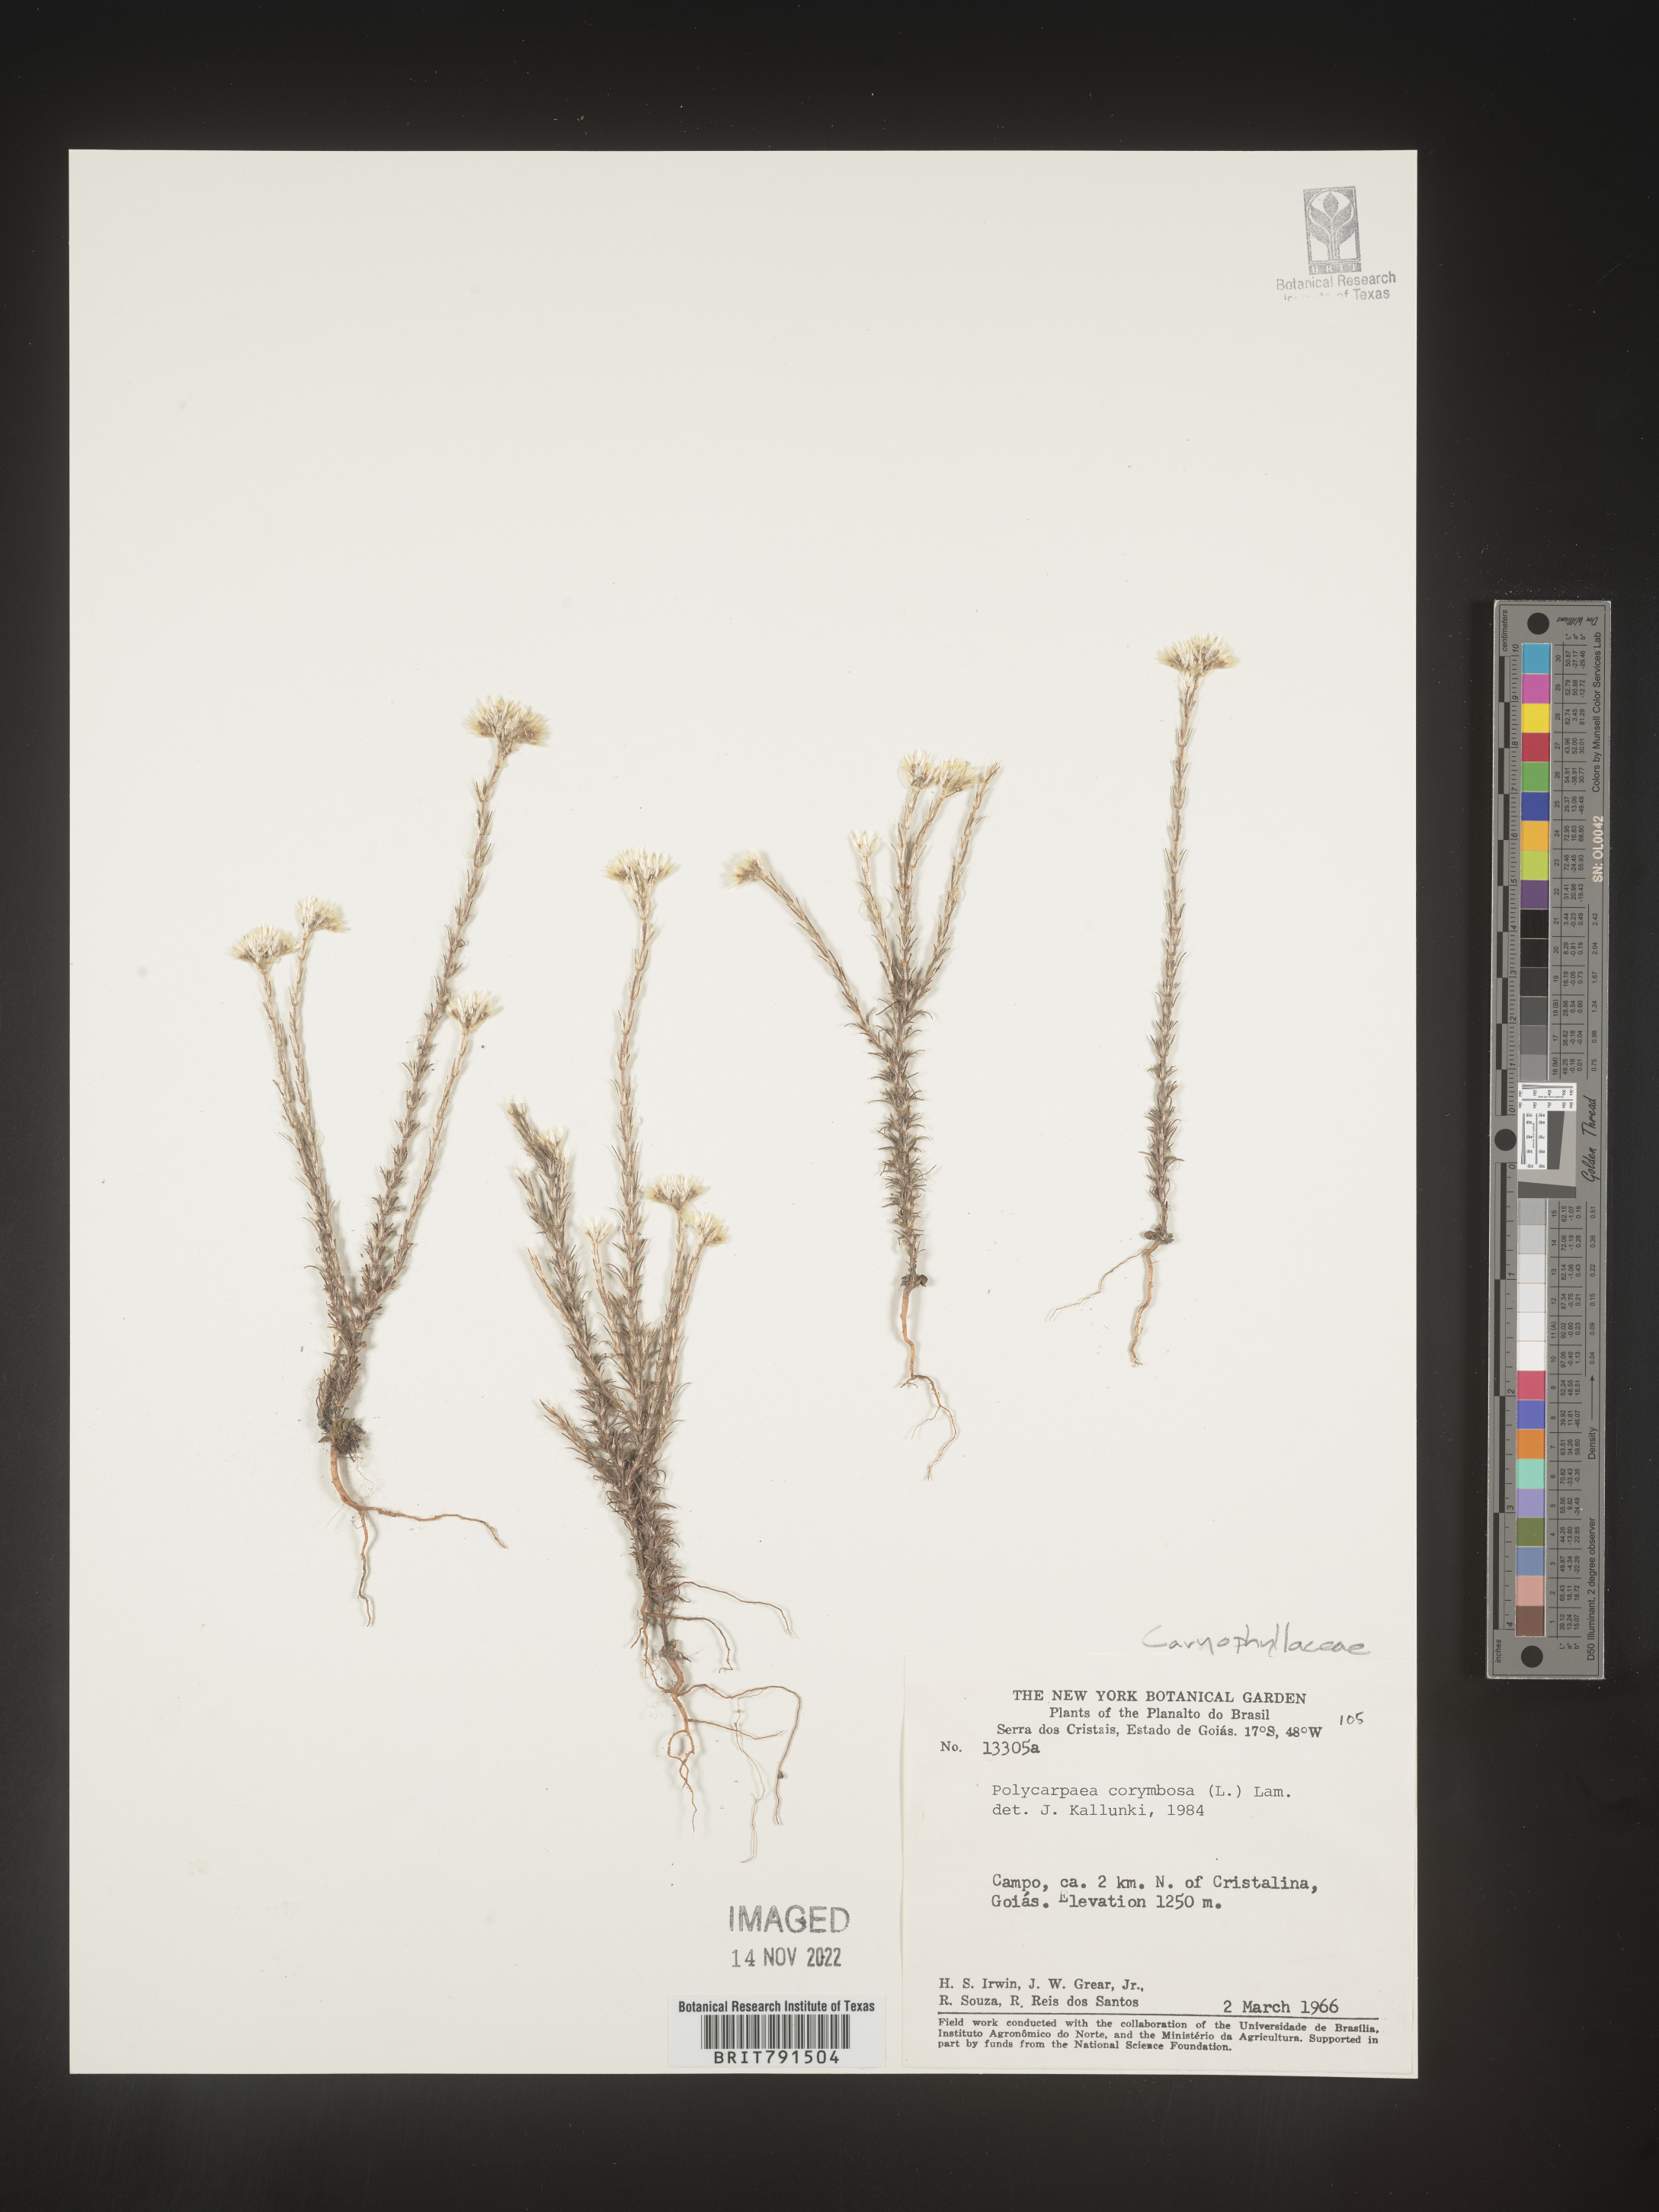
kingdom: Plantae
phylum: Tracheophyta
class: Magnoliopsida
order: Caryophyllales
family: Caryophyllaceae
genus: Polycarpaea
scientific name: Polycarpaea
